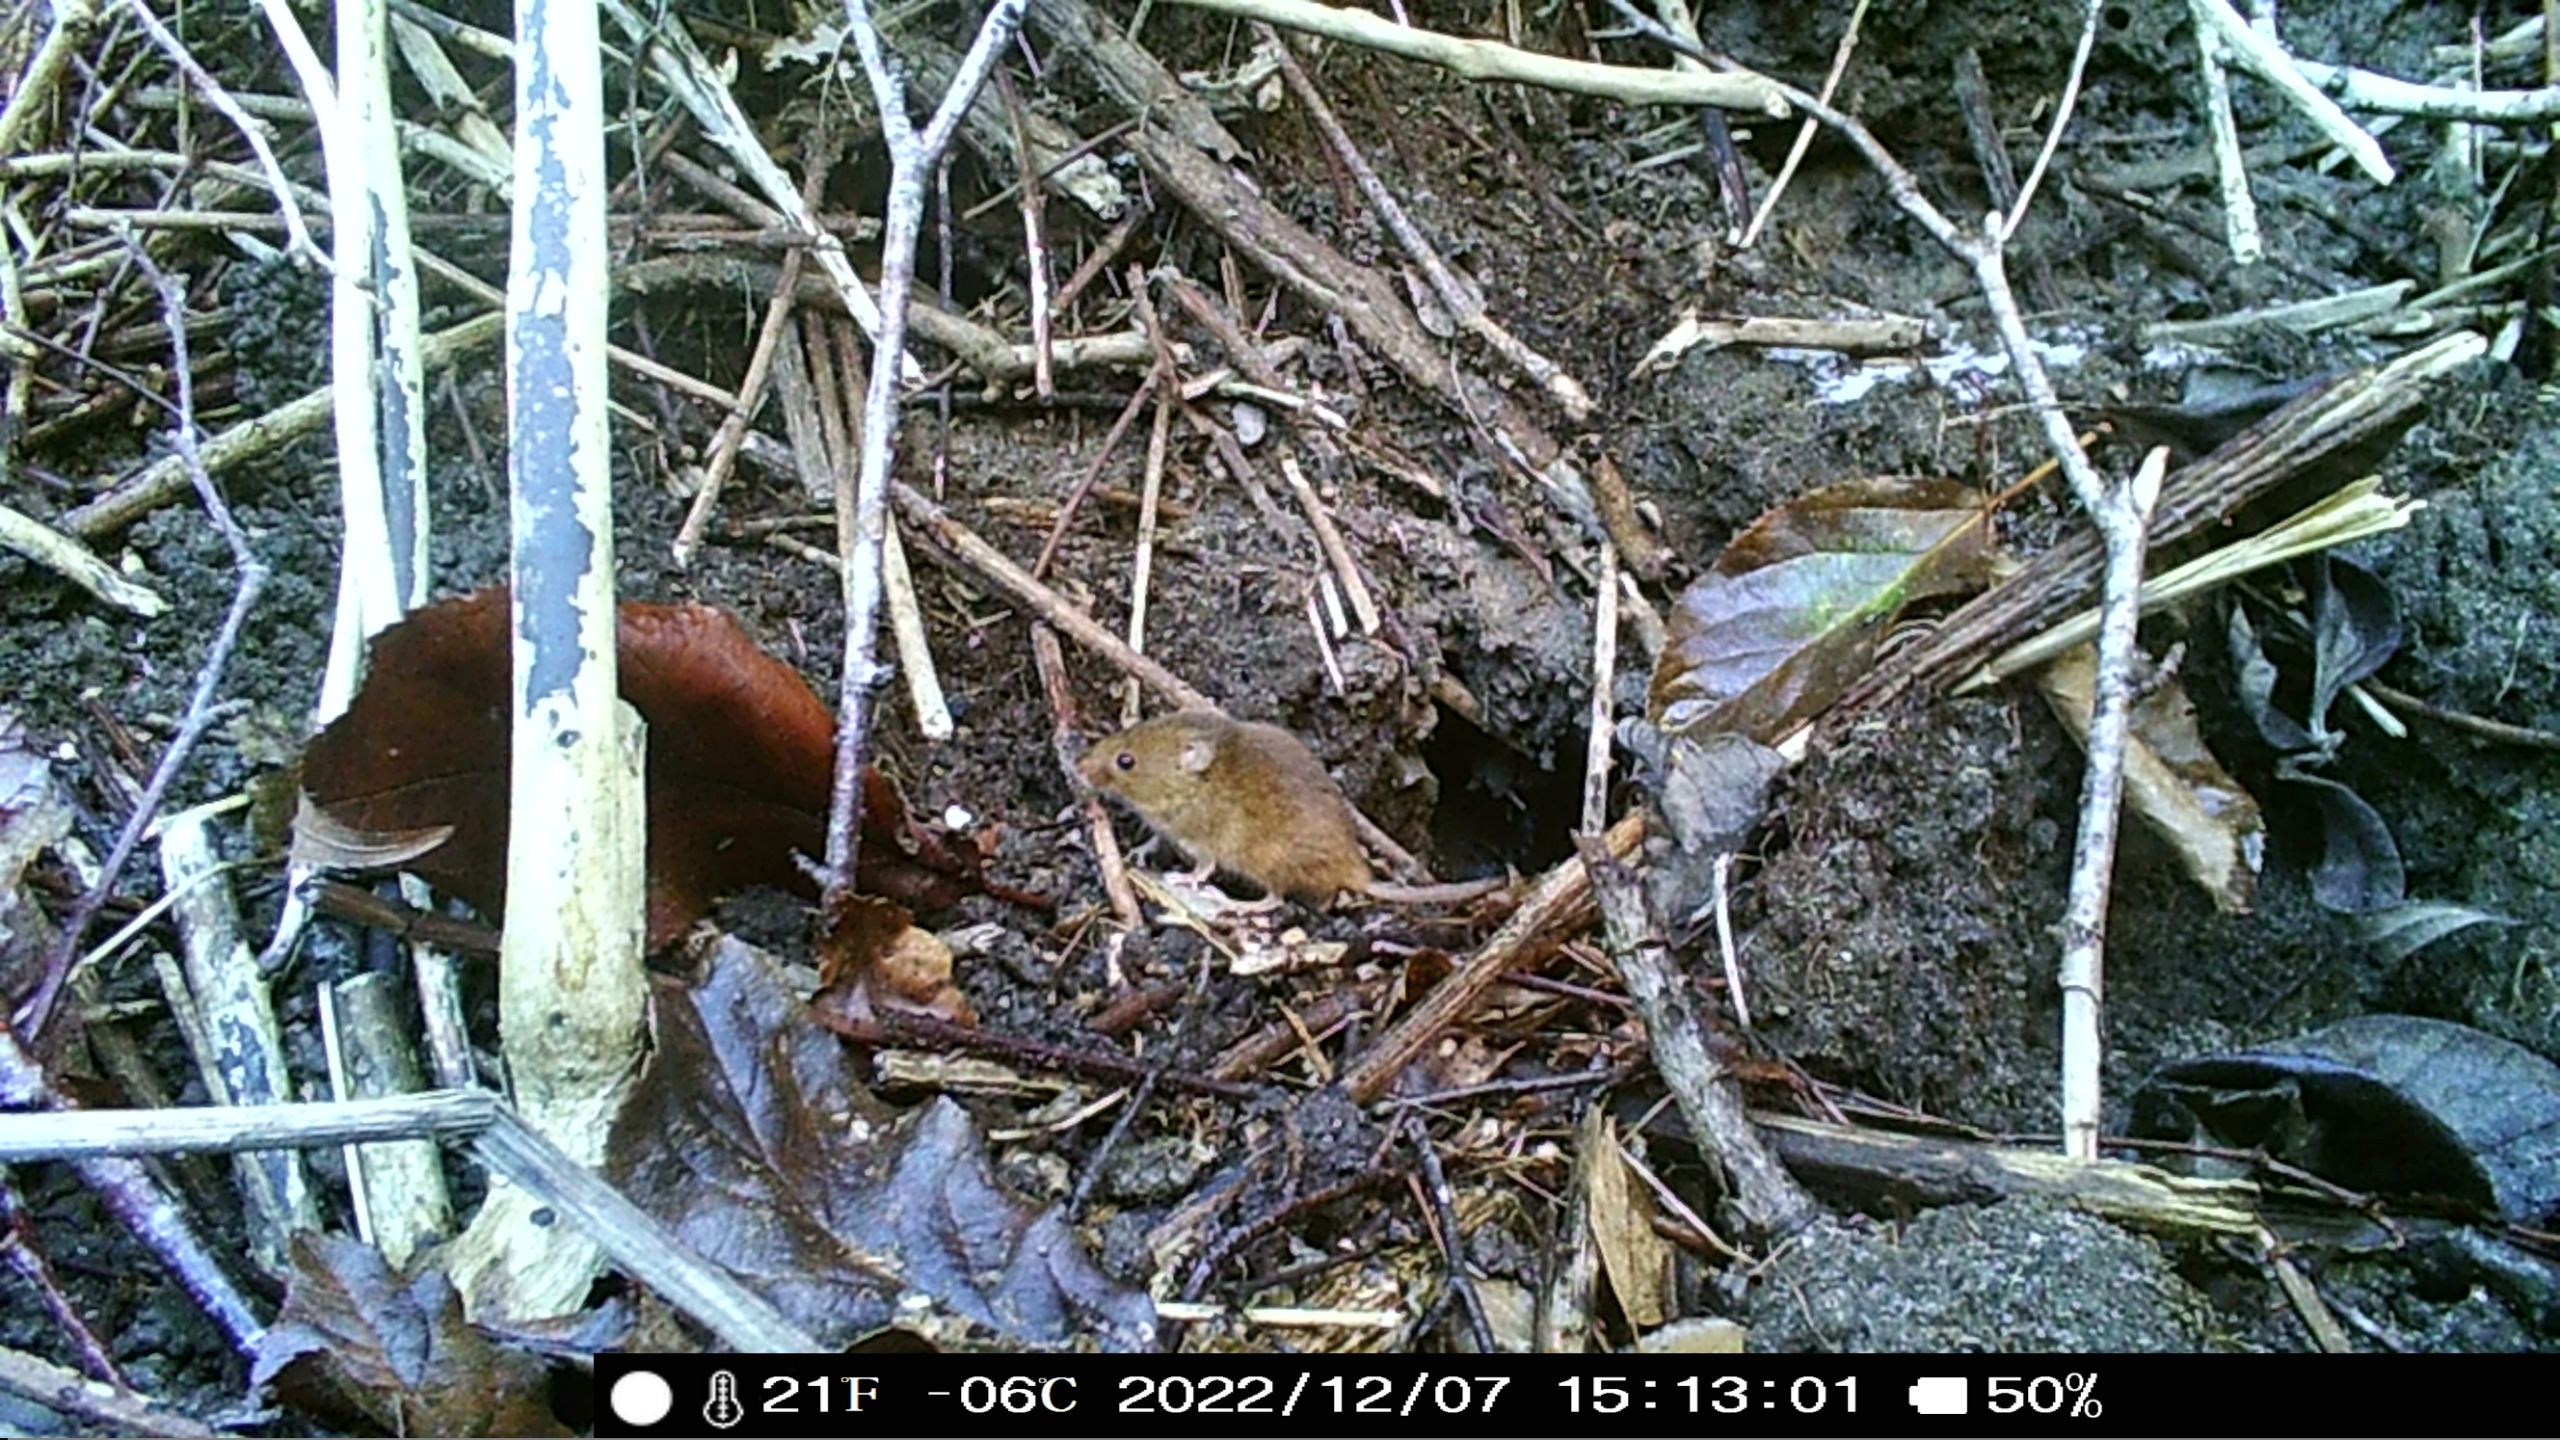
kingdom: Animalia
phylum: Chordata
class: Mammalia
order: Rodentia
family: Cricetidae
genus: Myodes
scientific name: Myodes glareolus
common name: Rødmus
